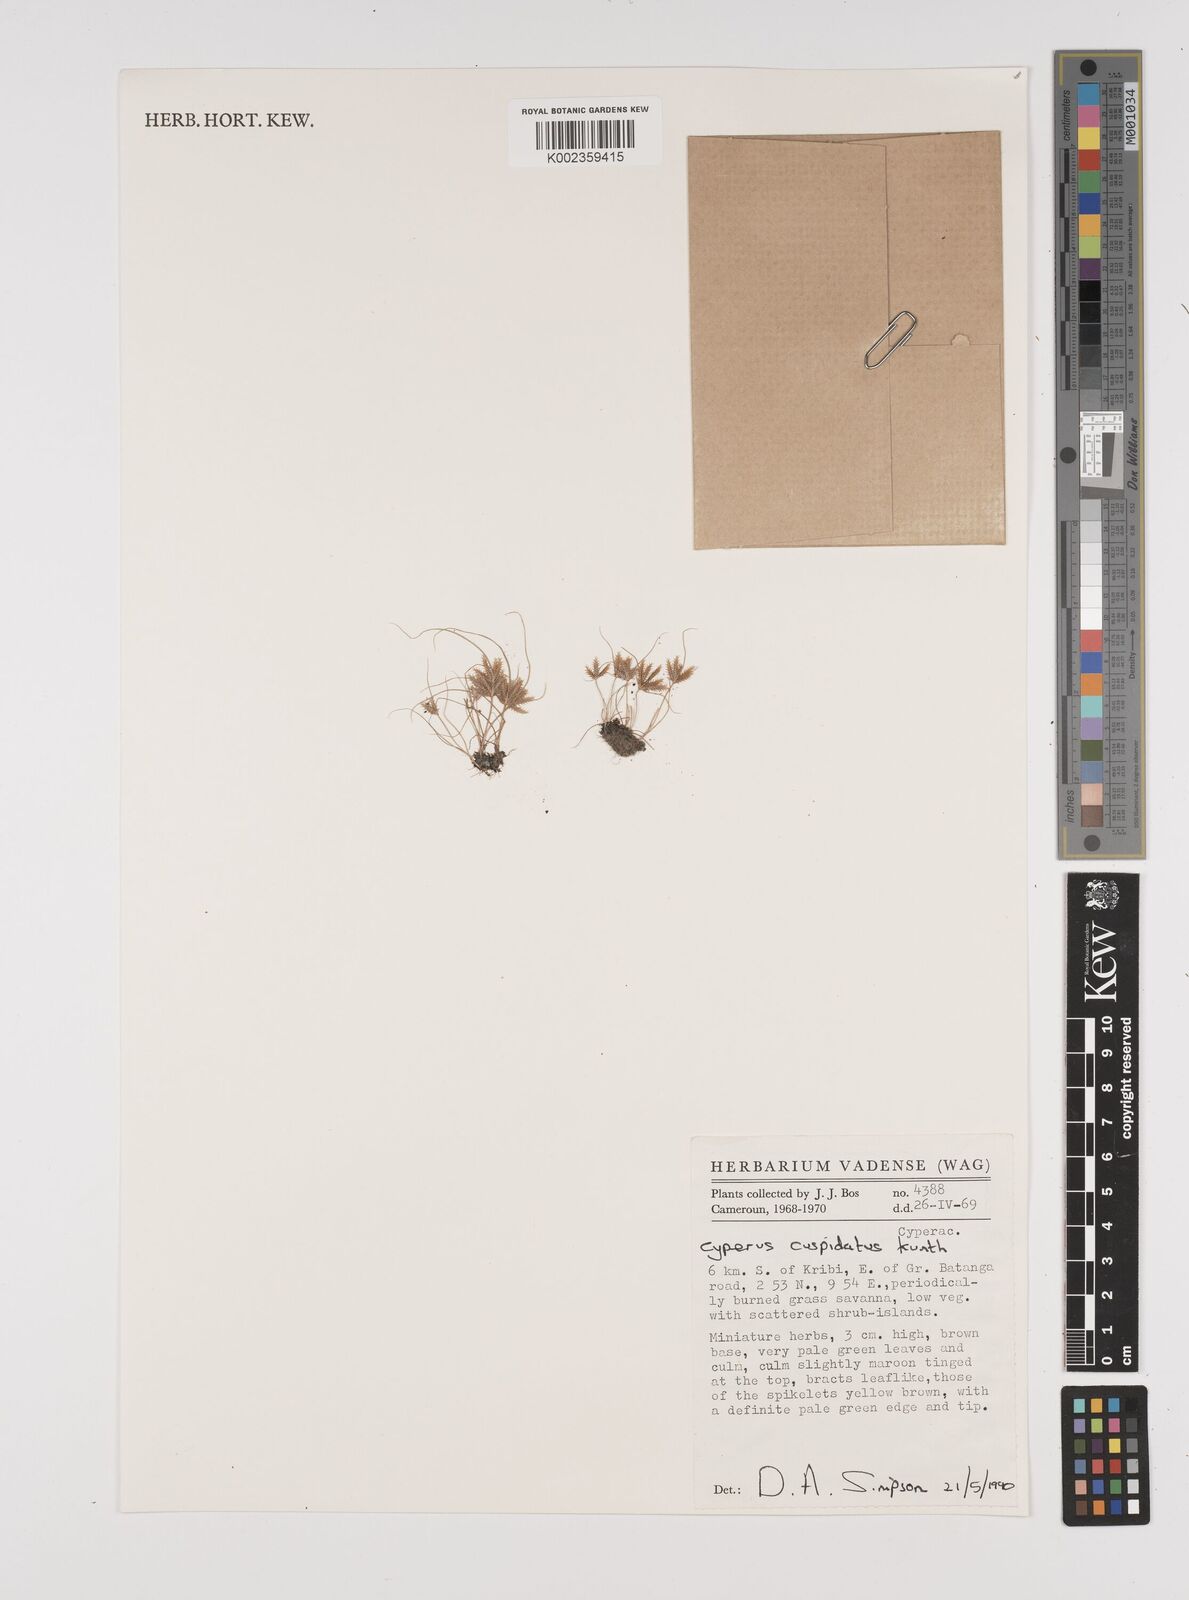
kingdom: Plantae
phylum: Tracheophyta
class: Liliopsida
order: Poales
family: Cyperaceae
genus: Cyperus
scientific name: Cyperus cuspidatus
